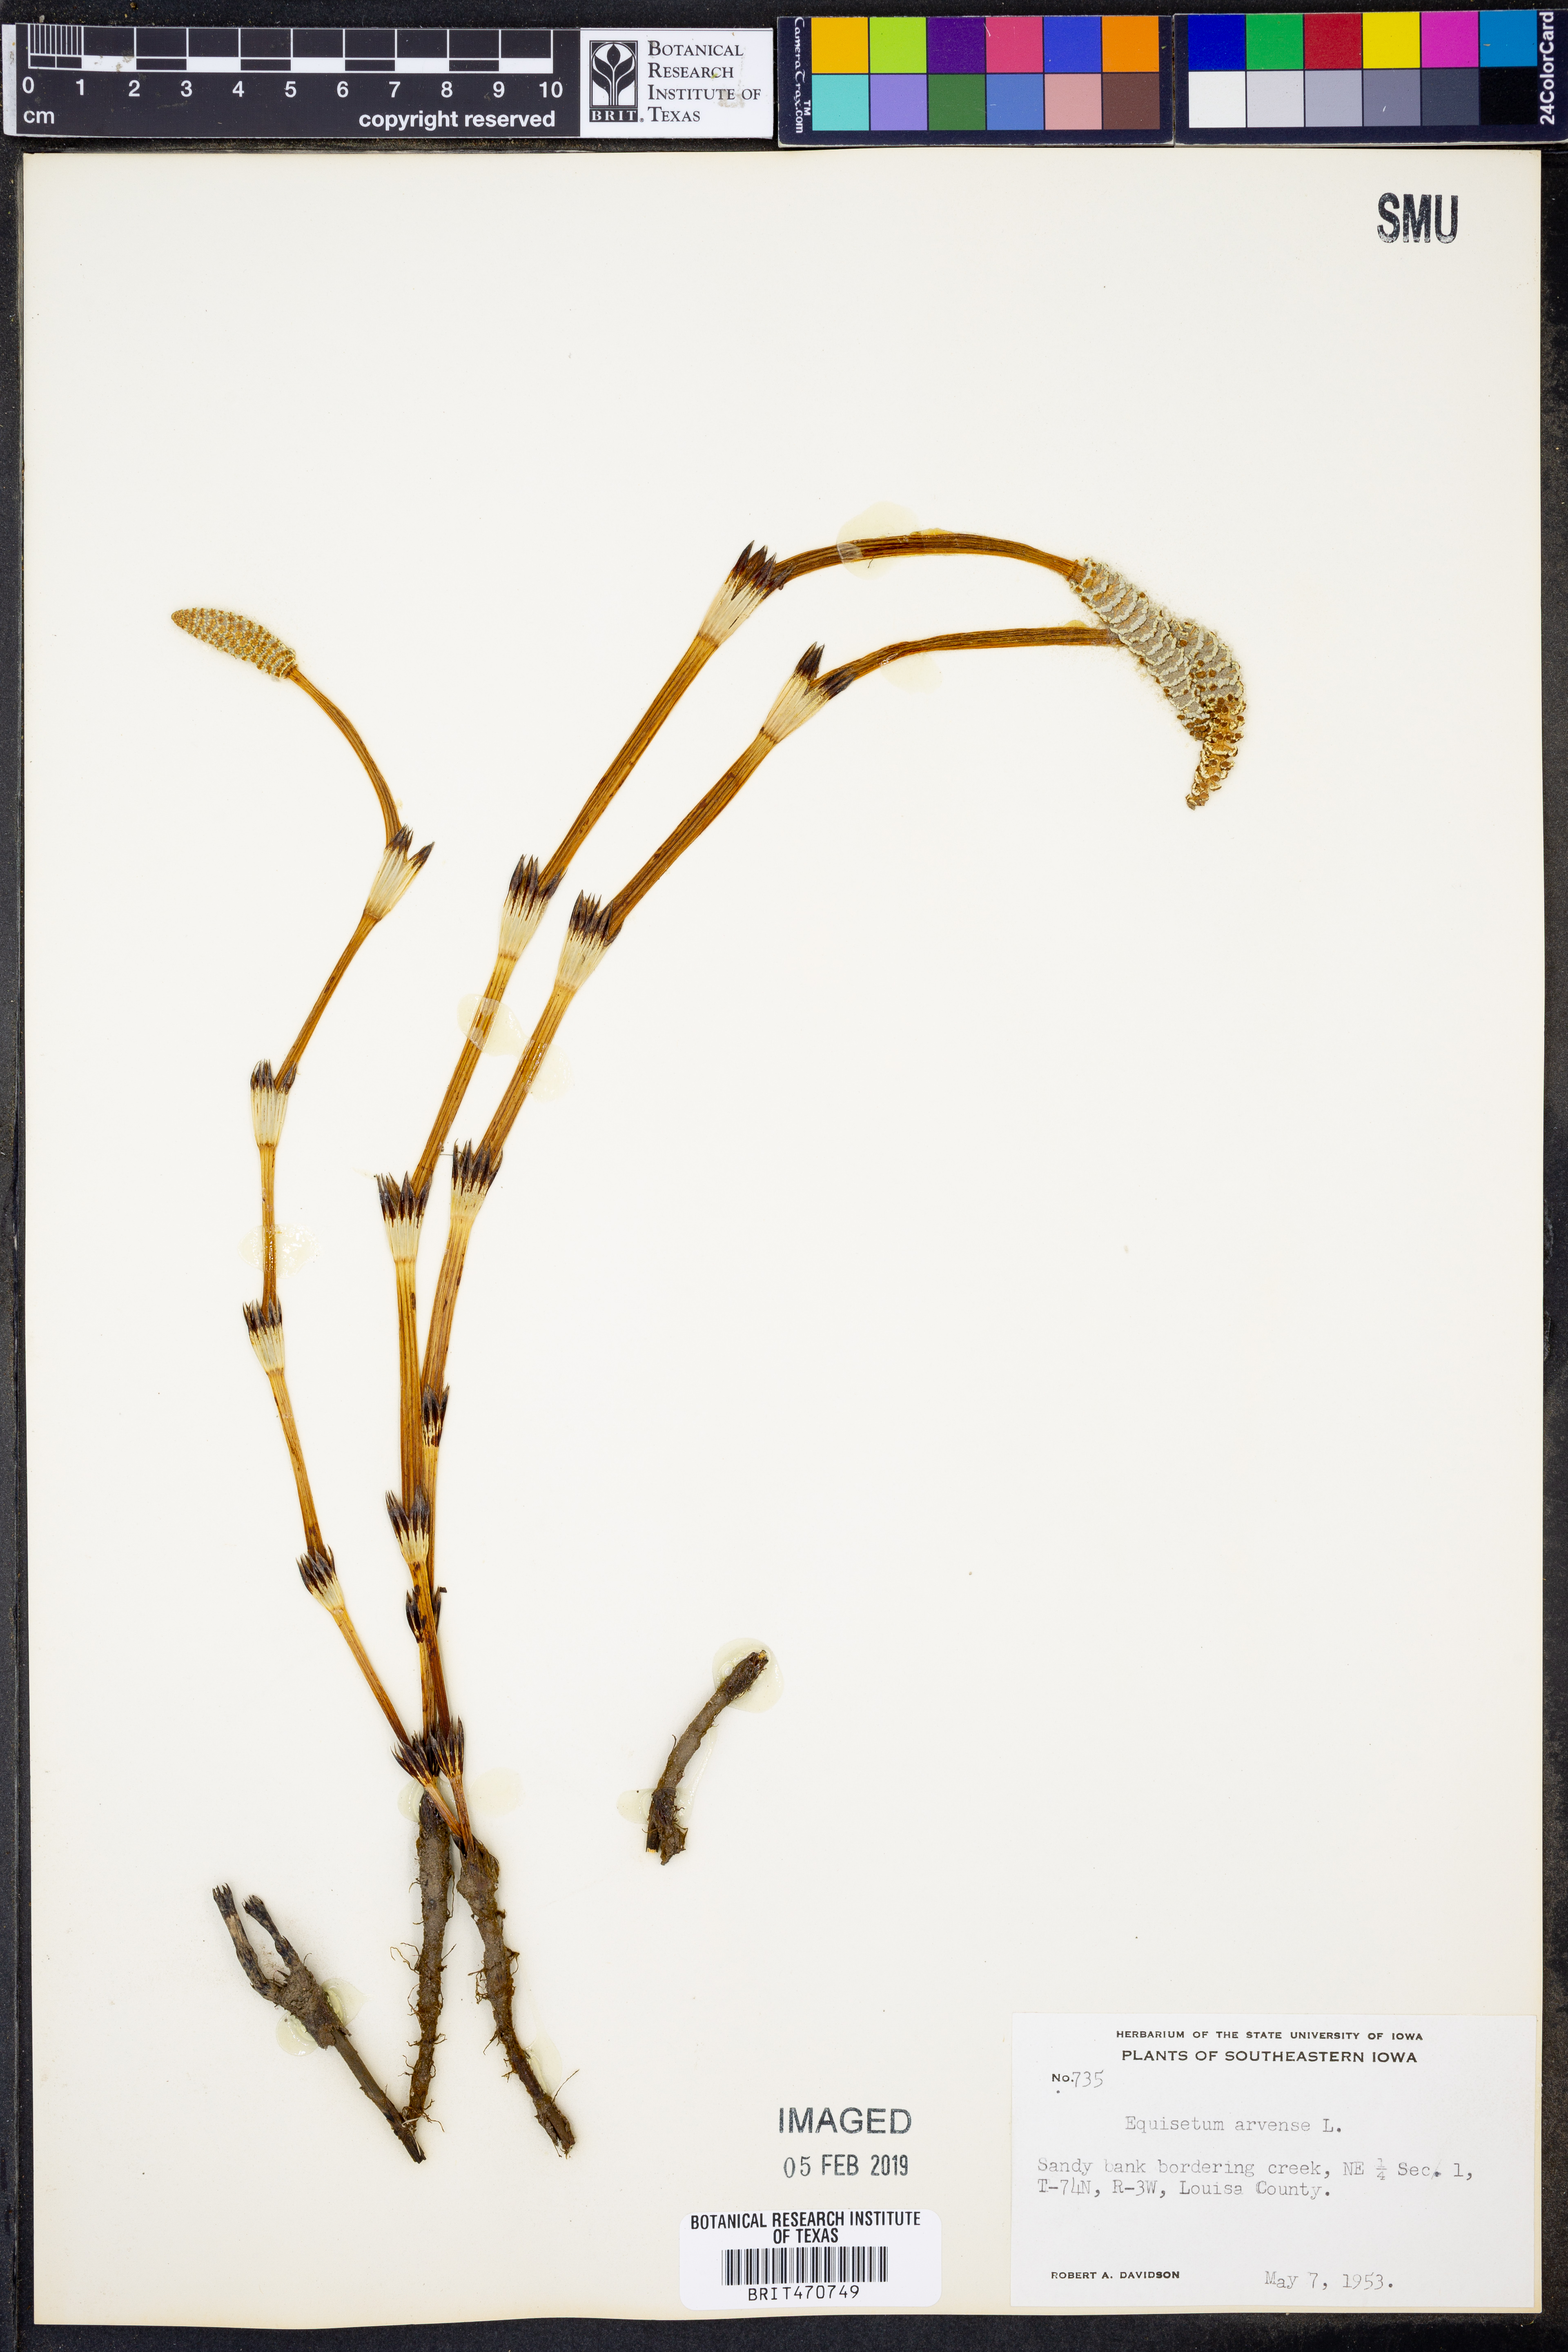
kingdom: Plantae
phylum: Tracheophyta
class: Polypodiopsida
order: Equisetales
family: Equisetaceae
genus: Equisetum
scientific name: Equisetum arvense
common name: Field horsetail
